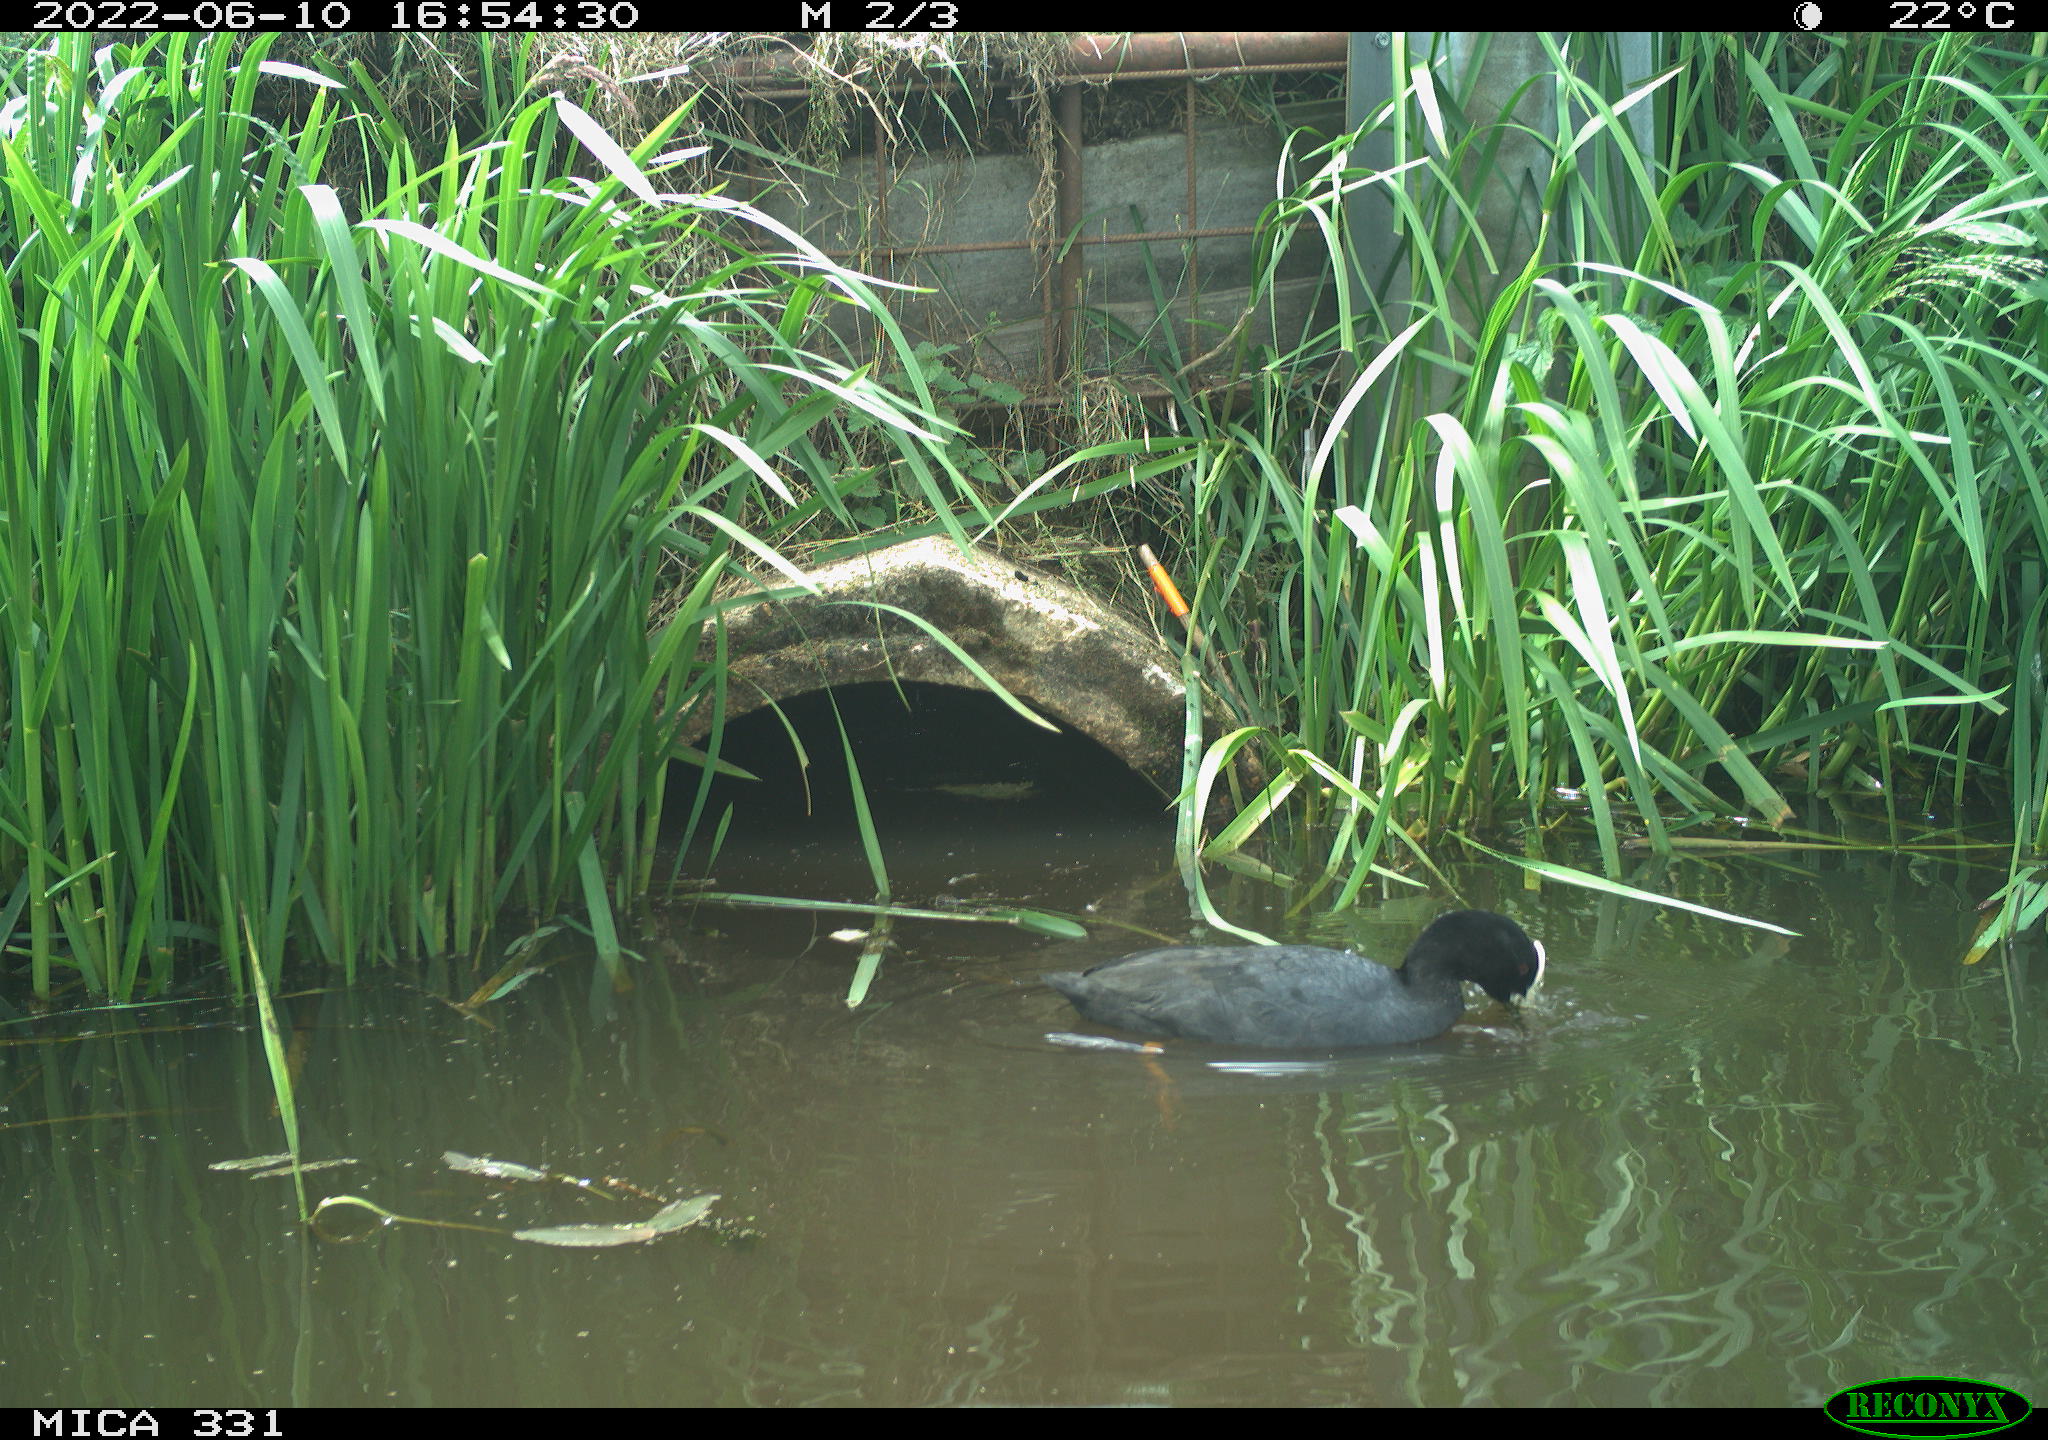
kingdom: Animalia
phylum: Chordata
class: Aves
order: Gruiformes
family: Rallidae
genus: Fulica
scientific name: Fulica atra
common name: Eurasian coot
